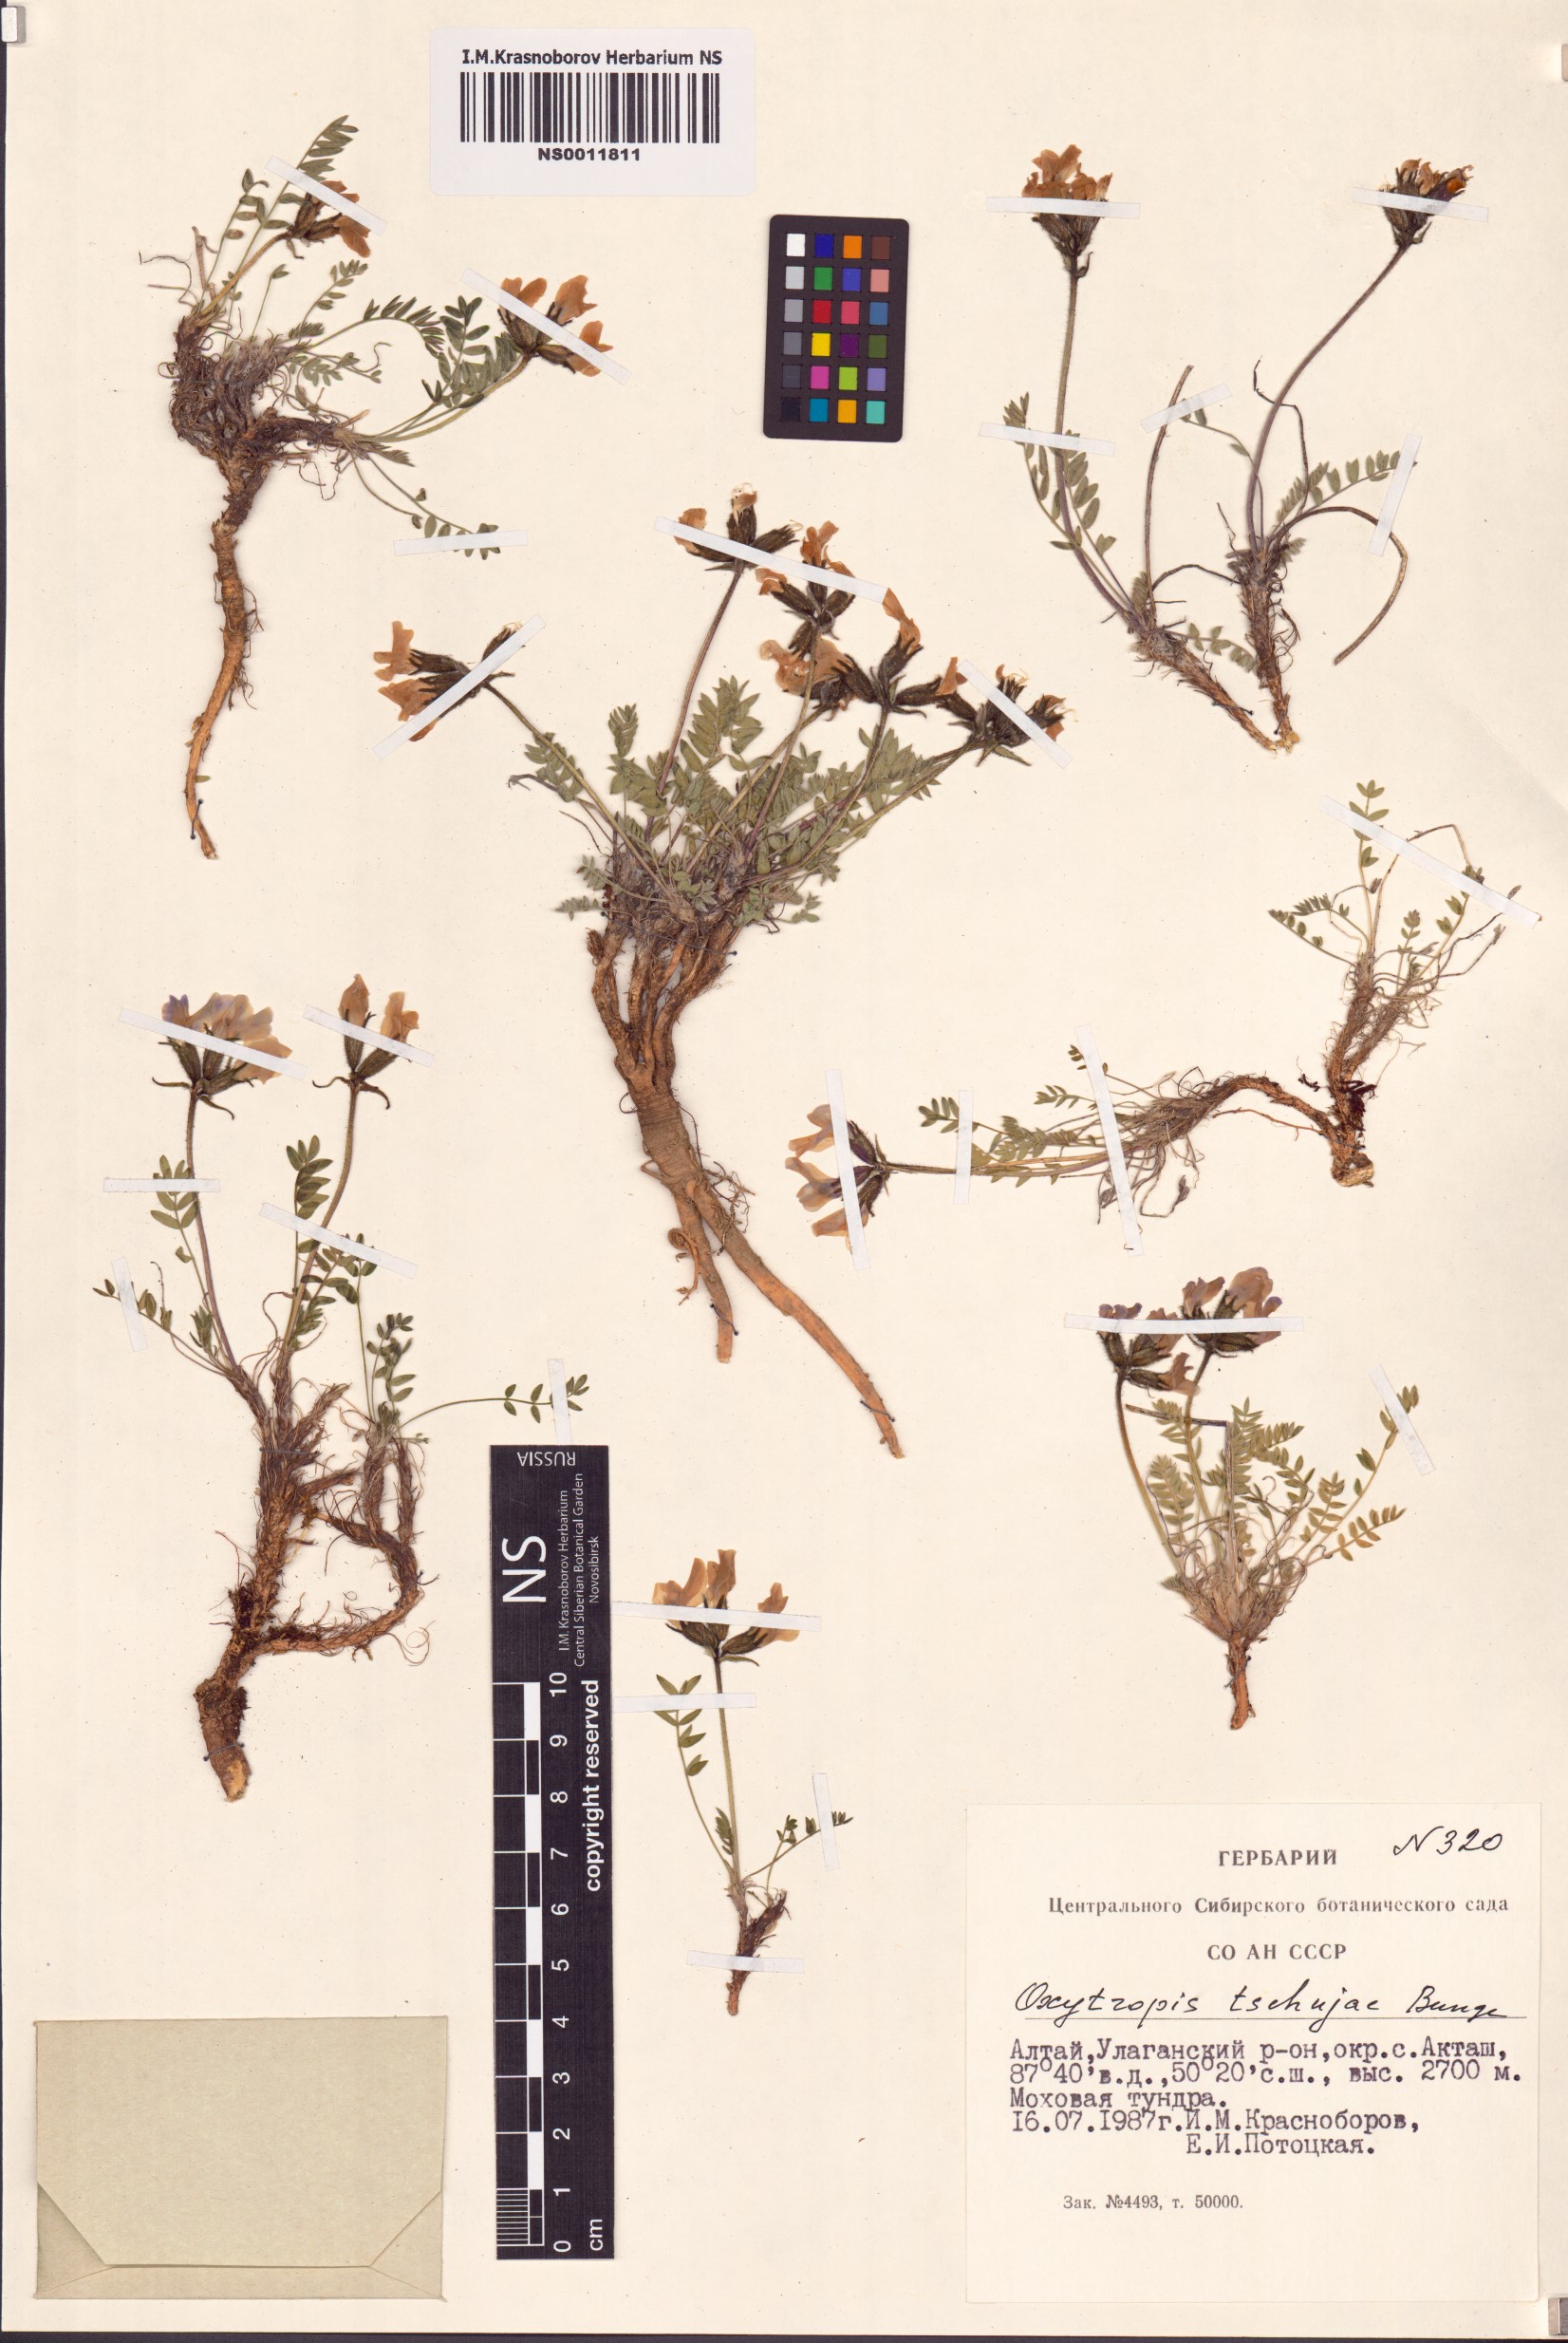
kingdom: Plantae
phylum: Tracheophyta
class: Magnoliopsida
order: Fabales
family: Fabaceae
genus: Oxytropis
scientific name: Oxytropis tschujae
